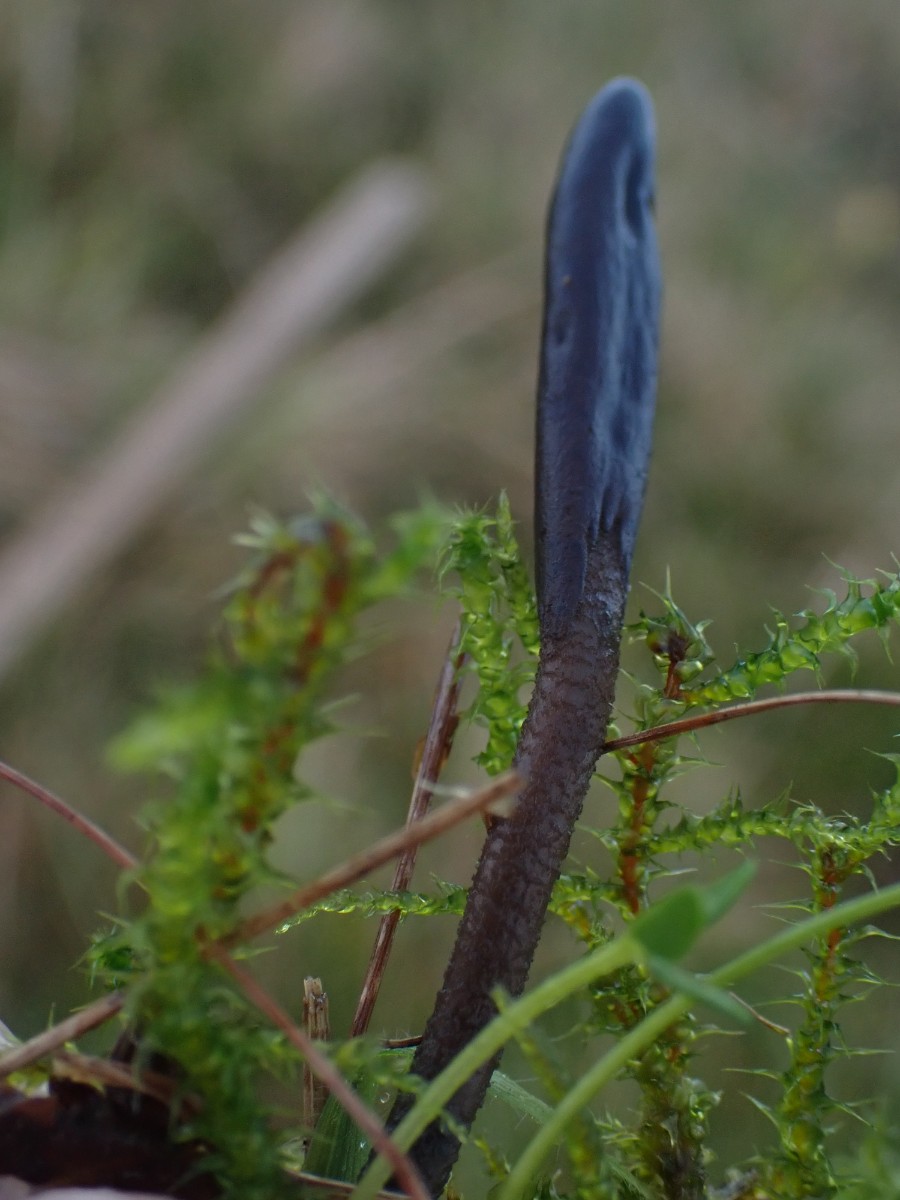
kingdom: Fungi
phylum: Ascomycota
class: Geoglossomycetes
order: Geoglossales
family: Geoglossaceae
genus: Geoglossum
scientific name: Geoglossum
